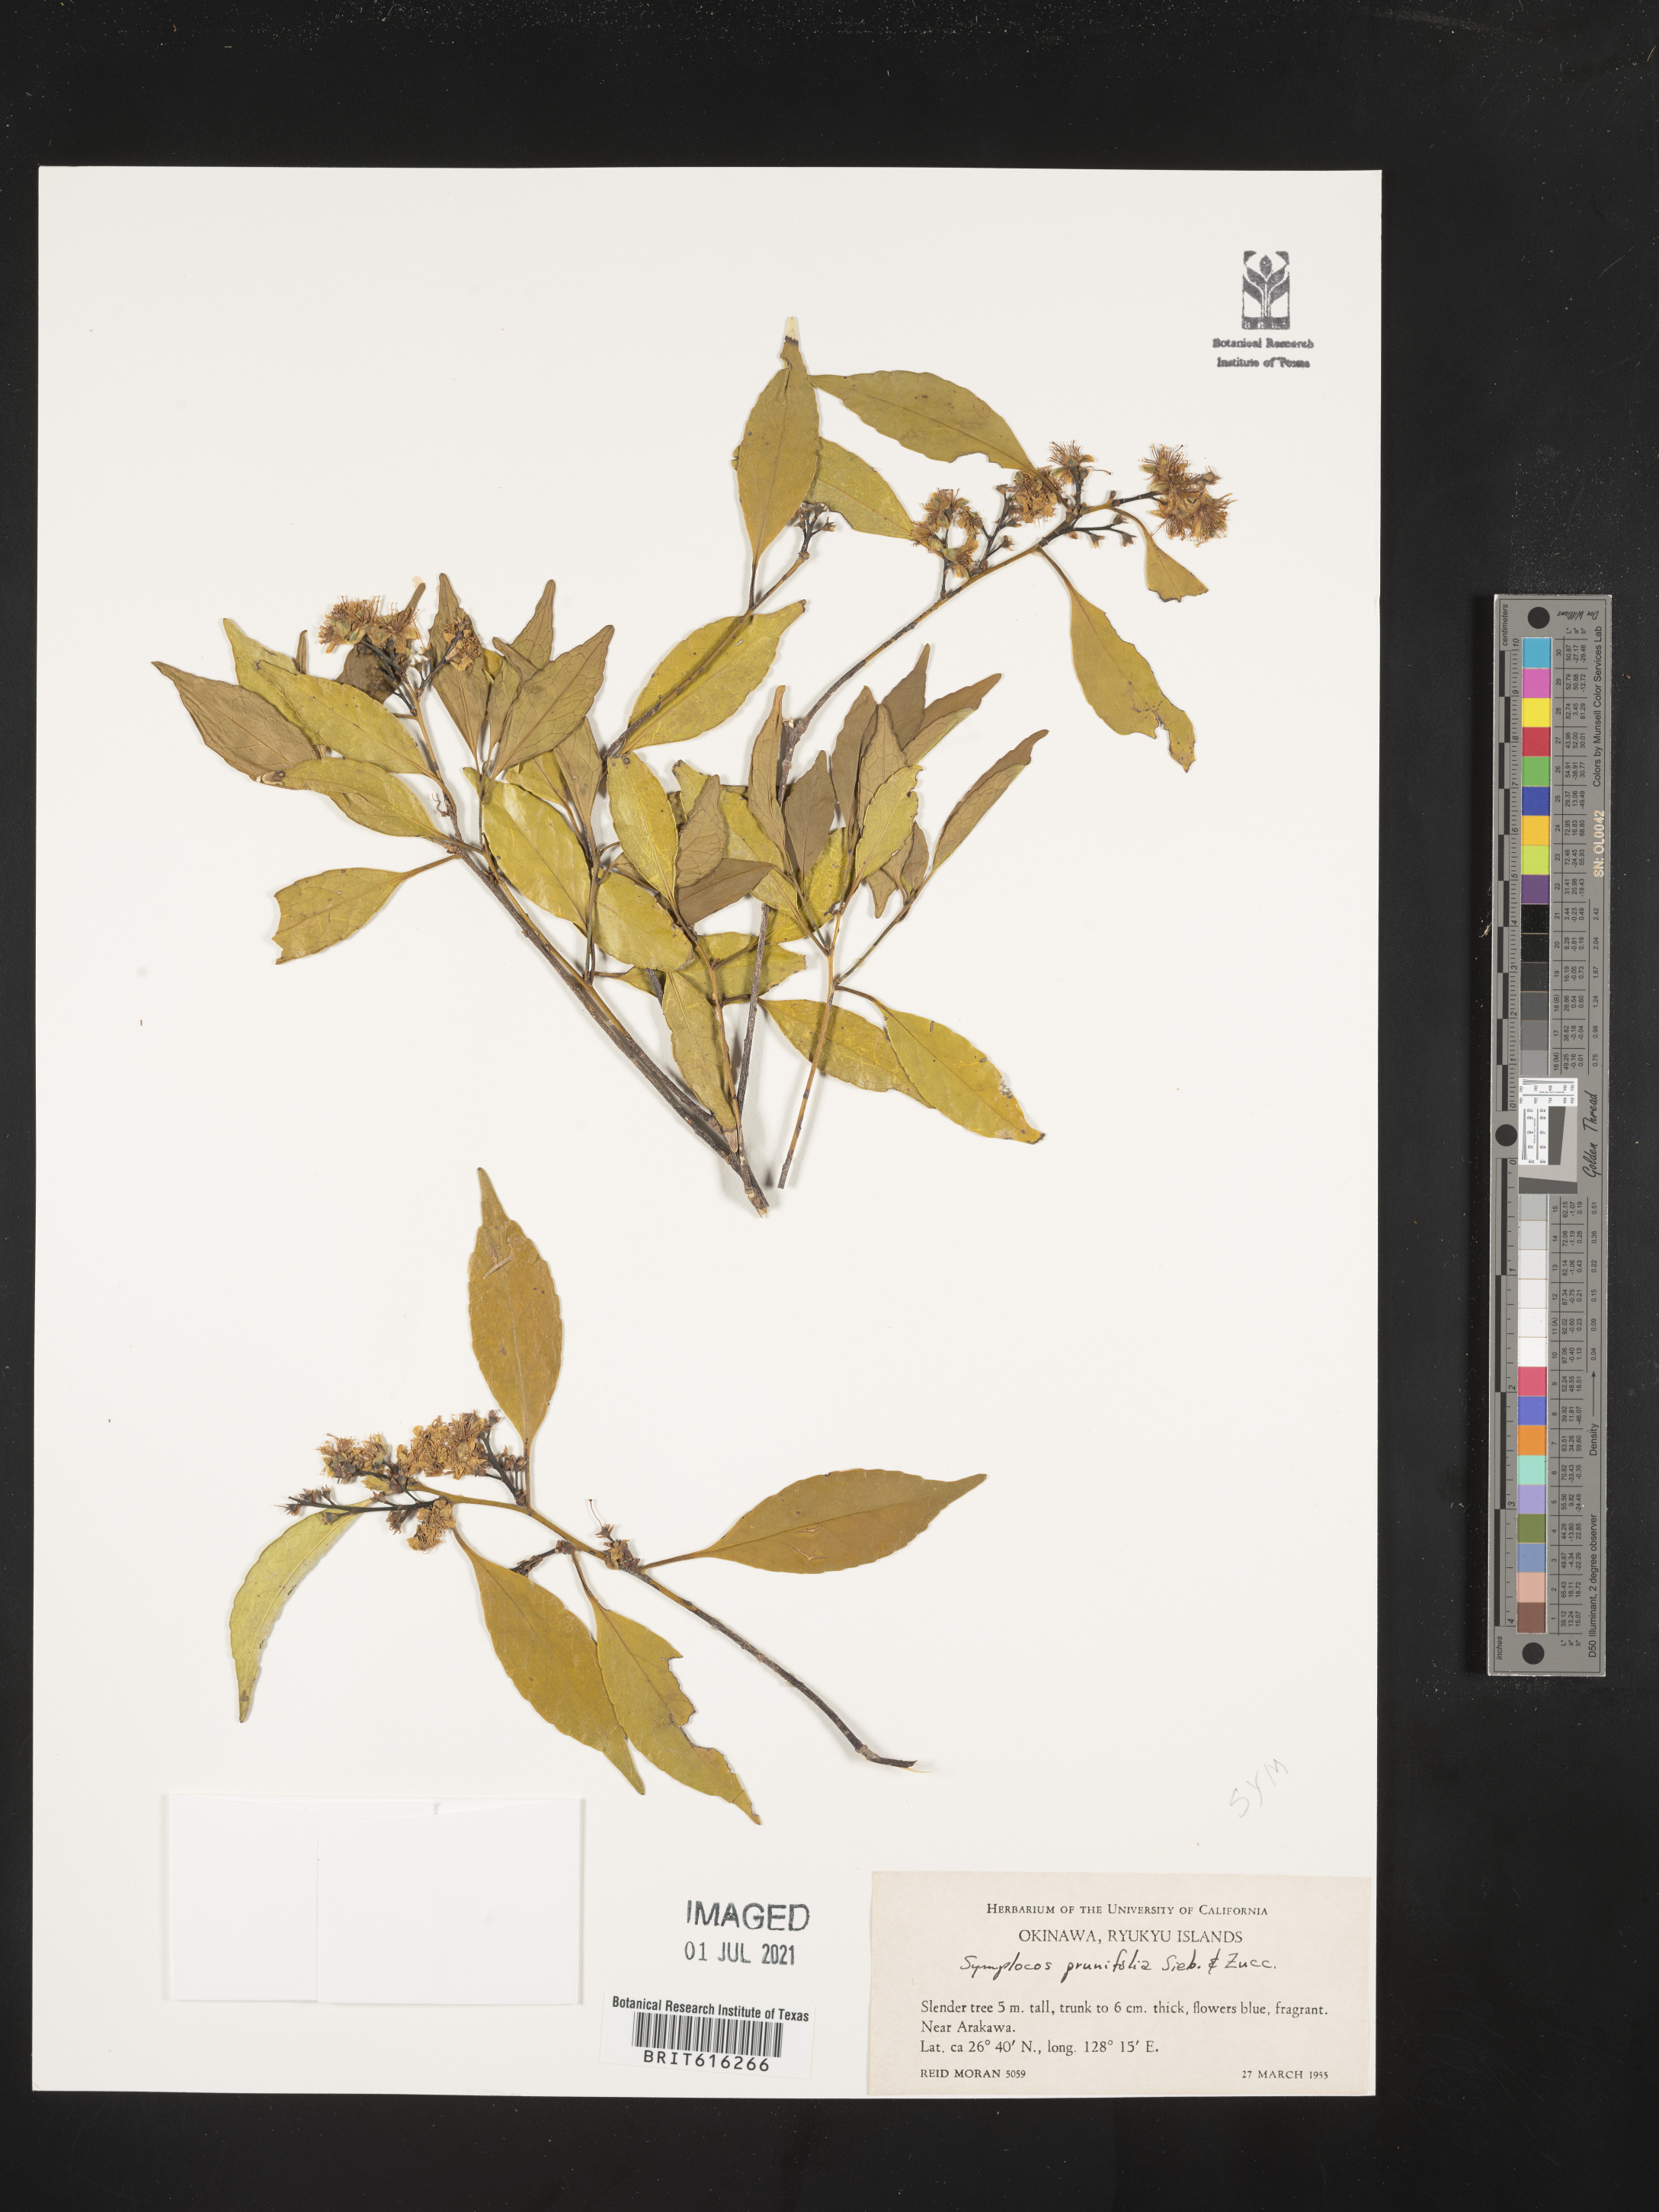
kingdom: Plantae
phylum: Tracheophyta
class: Magnoliopsida
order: Ericales
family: Symplocaceae
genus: Symplocos
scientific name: Symplocos sumuntia
